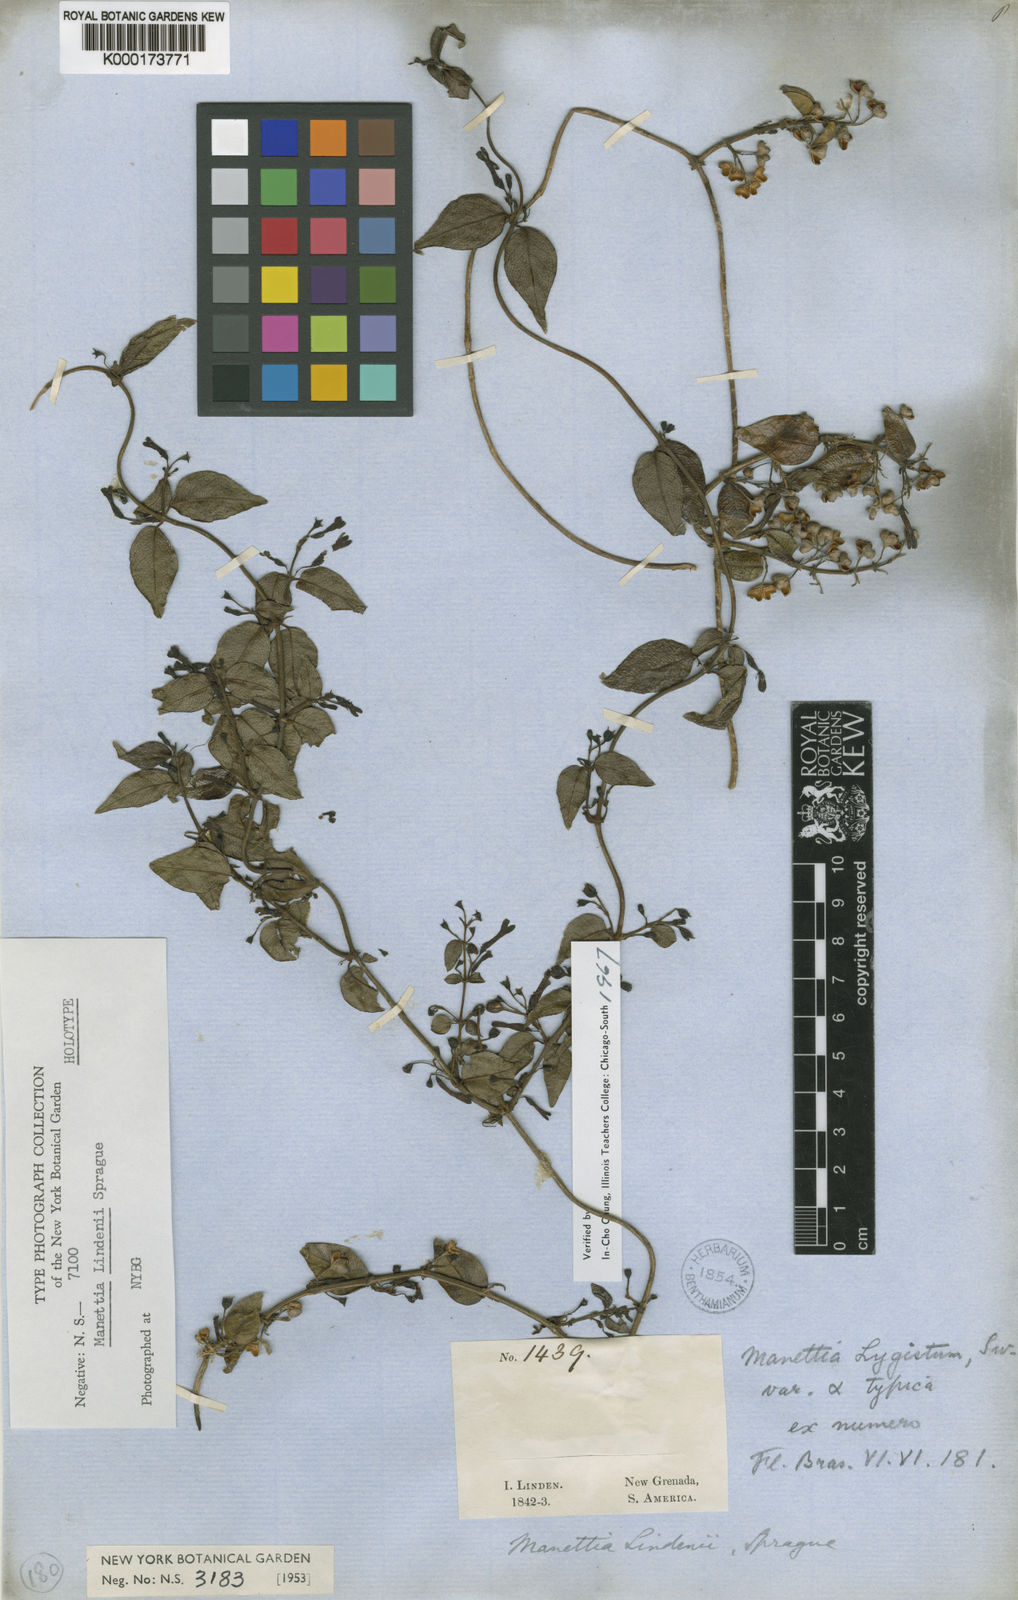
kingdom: Plantae
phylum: Tracheophyta
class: Magnoliopsida
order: Gentianales
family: Rubiaceae
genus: Manettia
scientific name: Manettia lindenii
